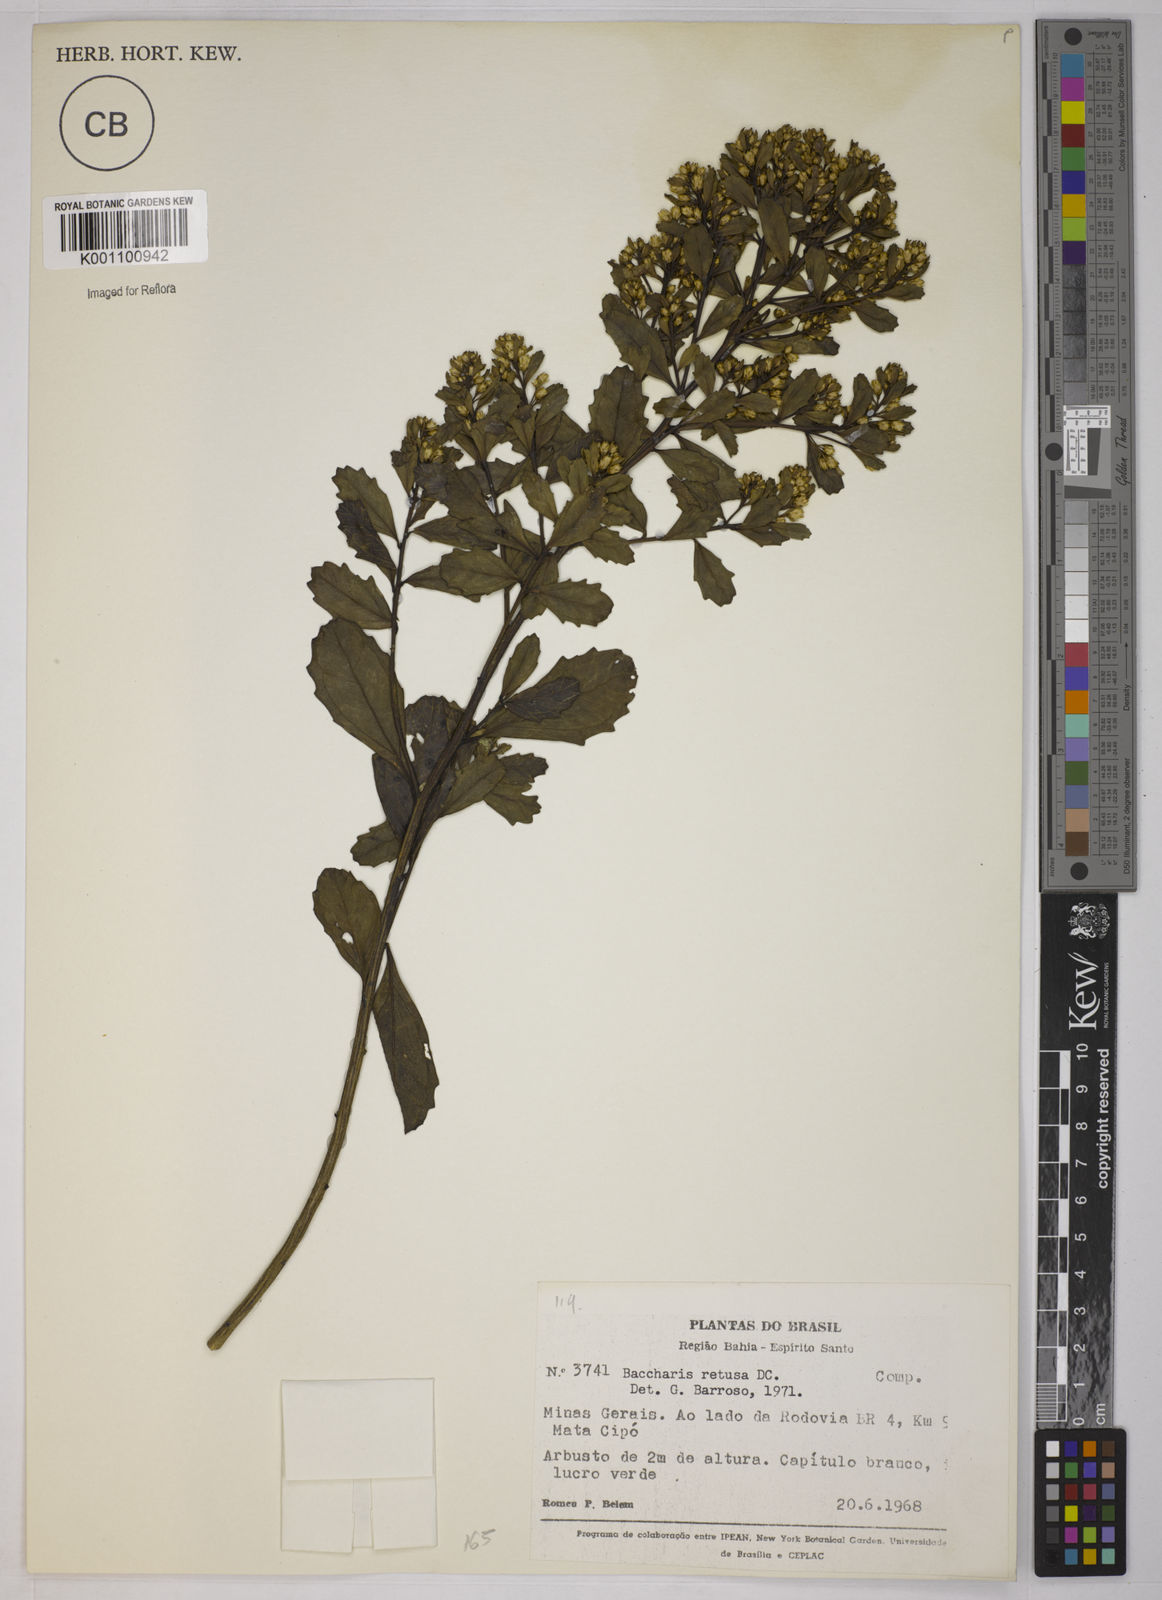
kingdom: Plantae
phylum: Tracheophyta
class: Magnoliopsida
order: Asterales
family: Asteraceae
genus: Baccharis
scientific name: Baccharis retusa
